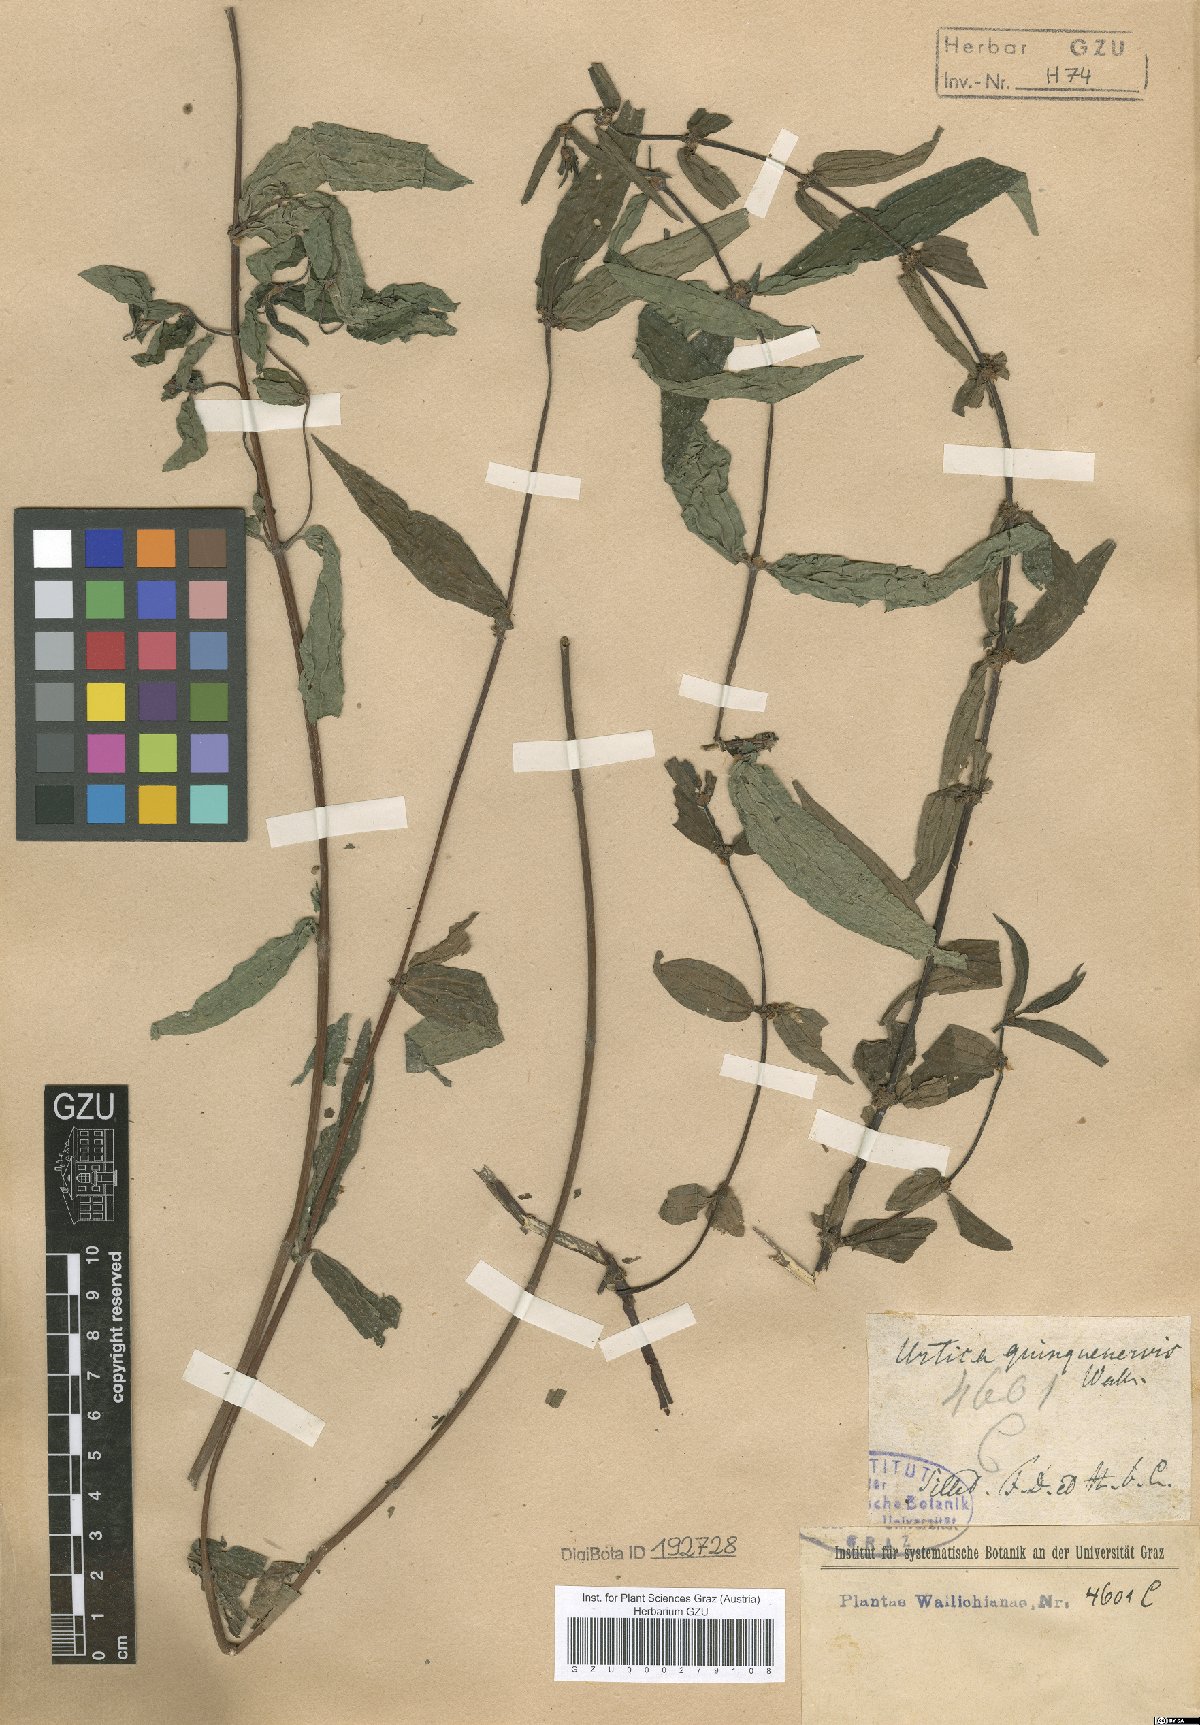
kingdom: Plantae
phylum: Tracheophyta
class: Magnoliopsida
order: Rosales
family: Urticaceae
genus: Gonostegia
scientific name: Gonostegia triandra
